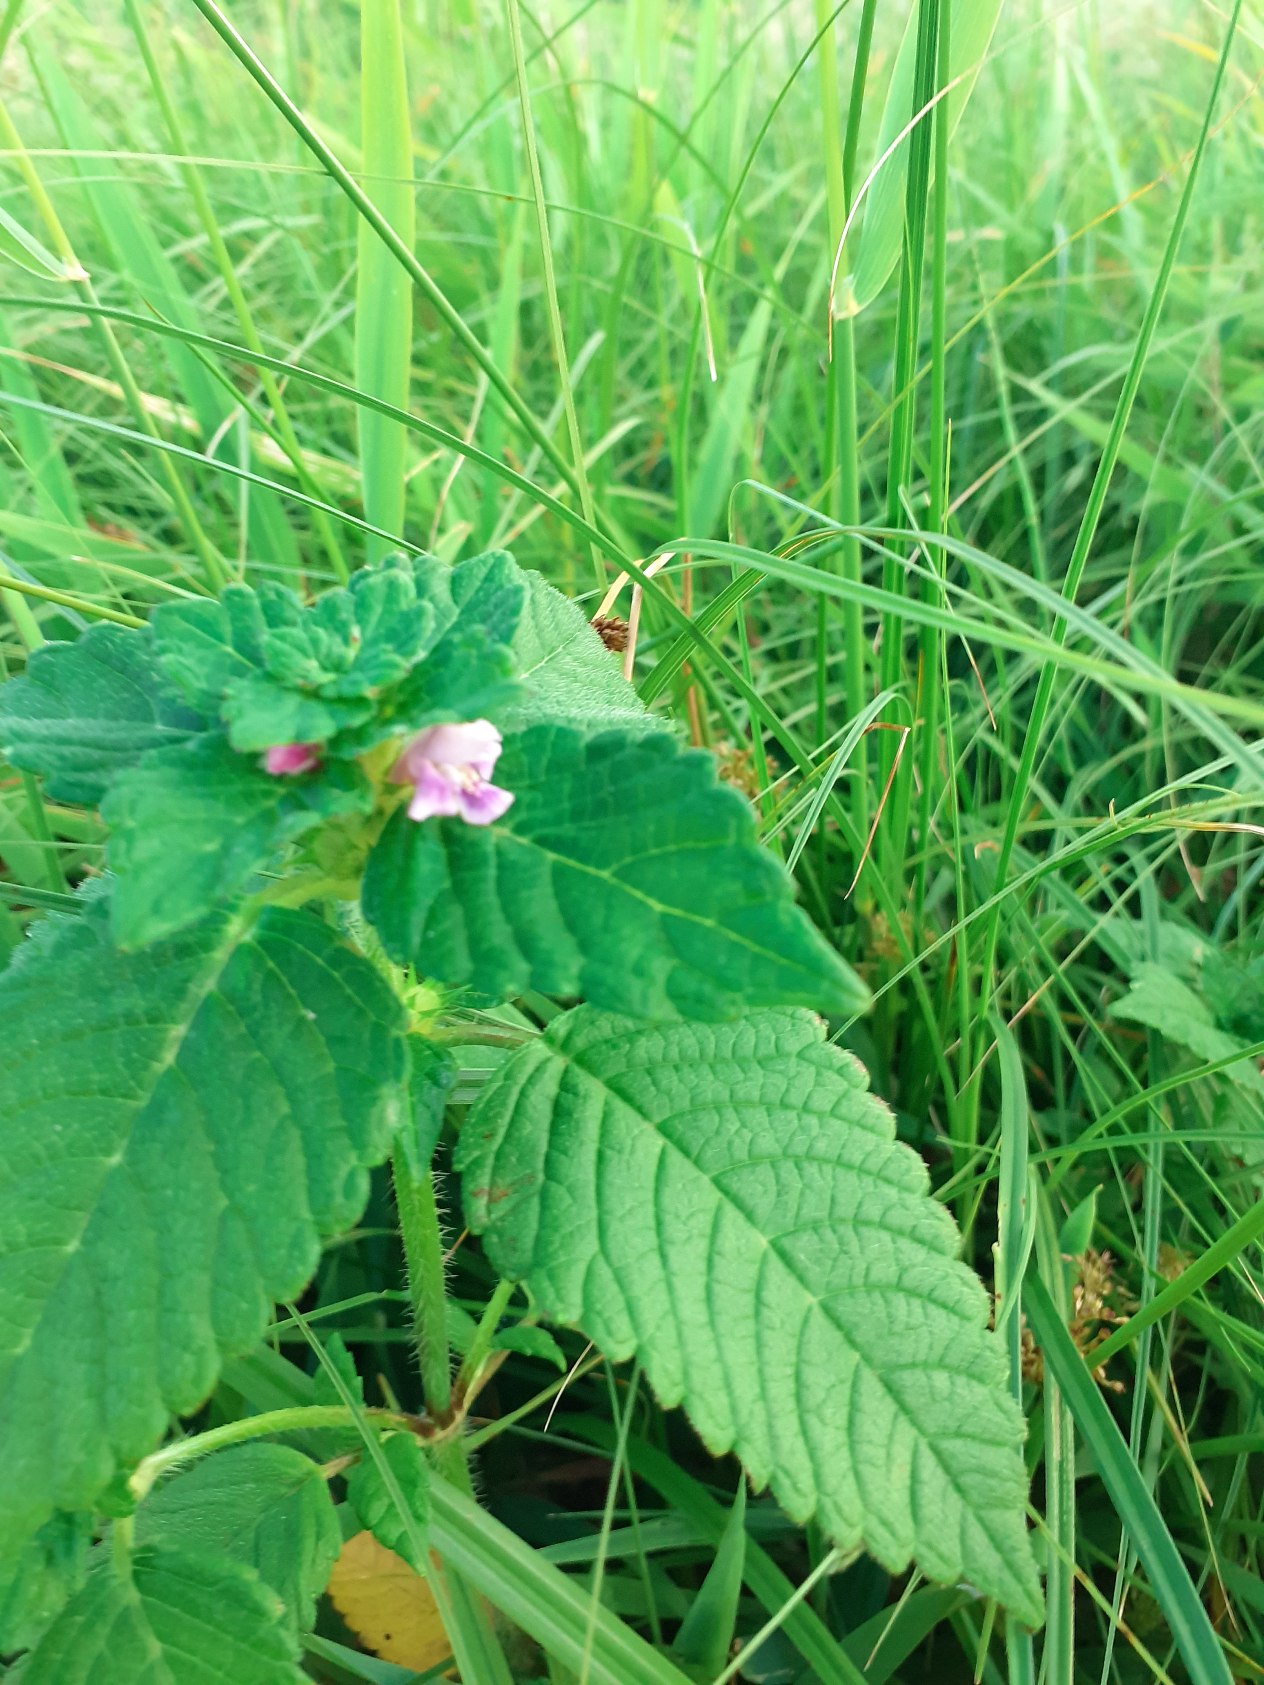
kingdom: Plantae
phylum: Tracheophyta
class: Magnoliopsida
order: Lamiales
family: Lamiaceae
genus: Galeopsis
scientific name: Galeopsis tetrahit
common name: Almindelig hanekro
